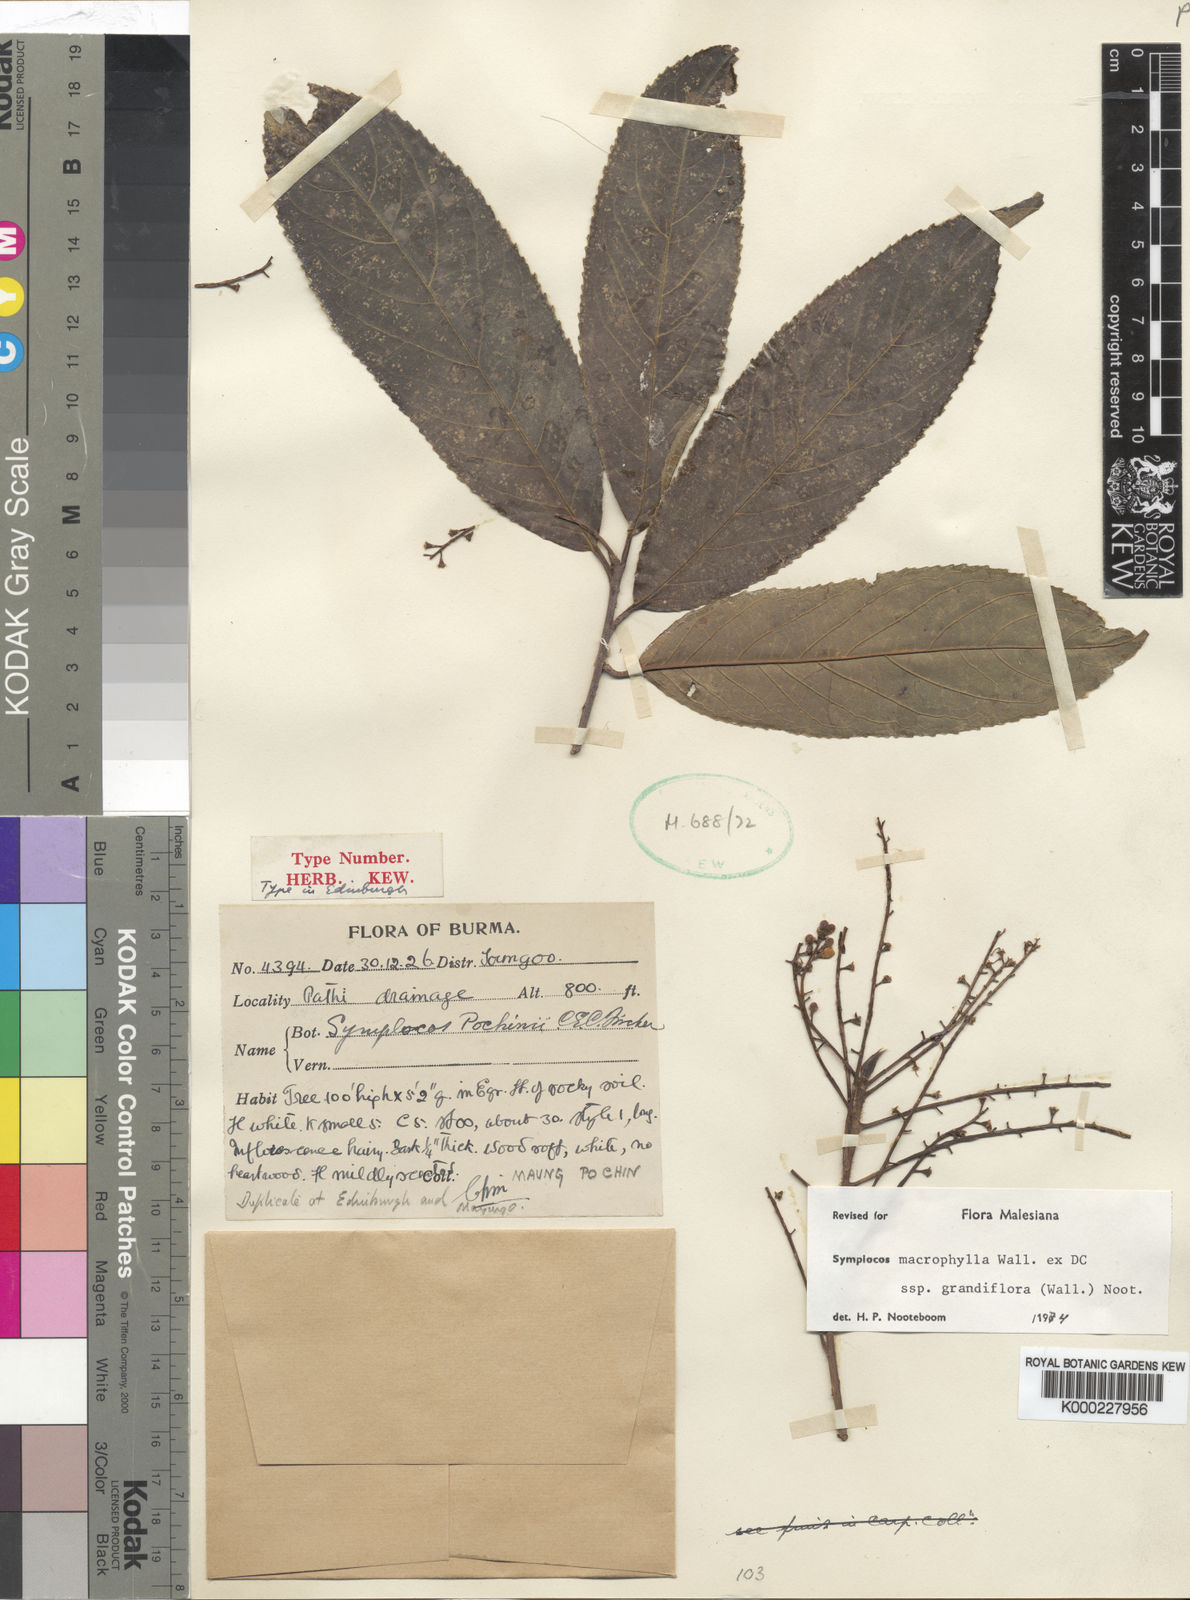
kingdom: Plantae
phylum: Tracheophyta
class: Magnoliopsida
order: Ericales
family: Symplocaceae
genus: Symplocos
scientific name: Symplocos macrophylla
